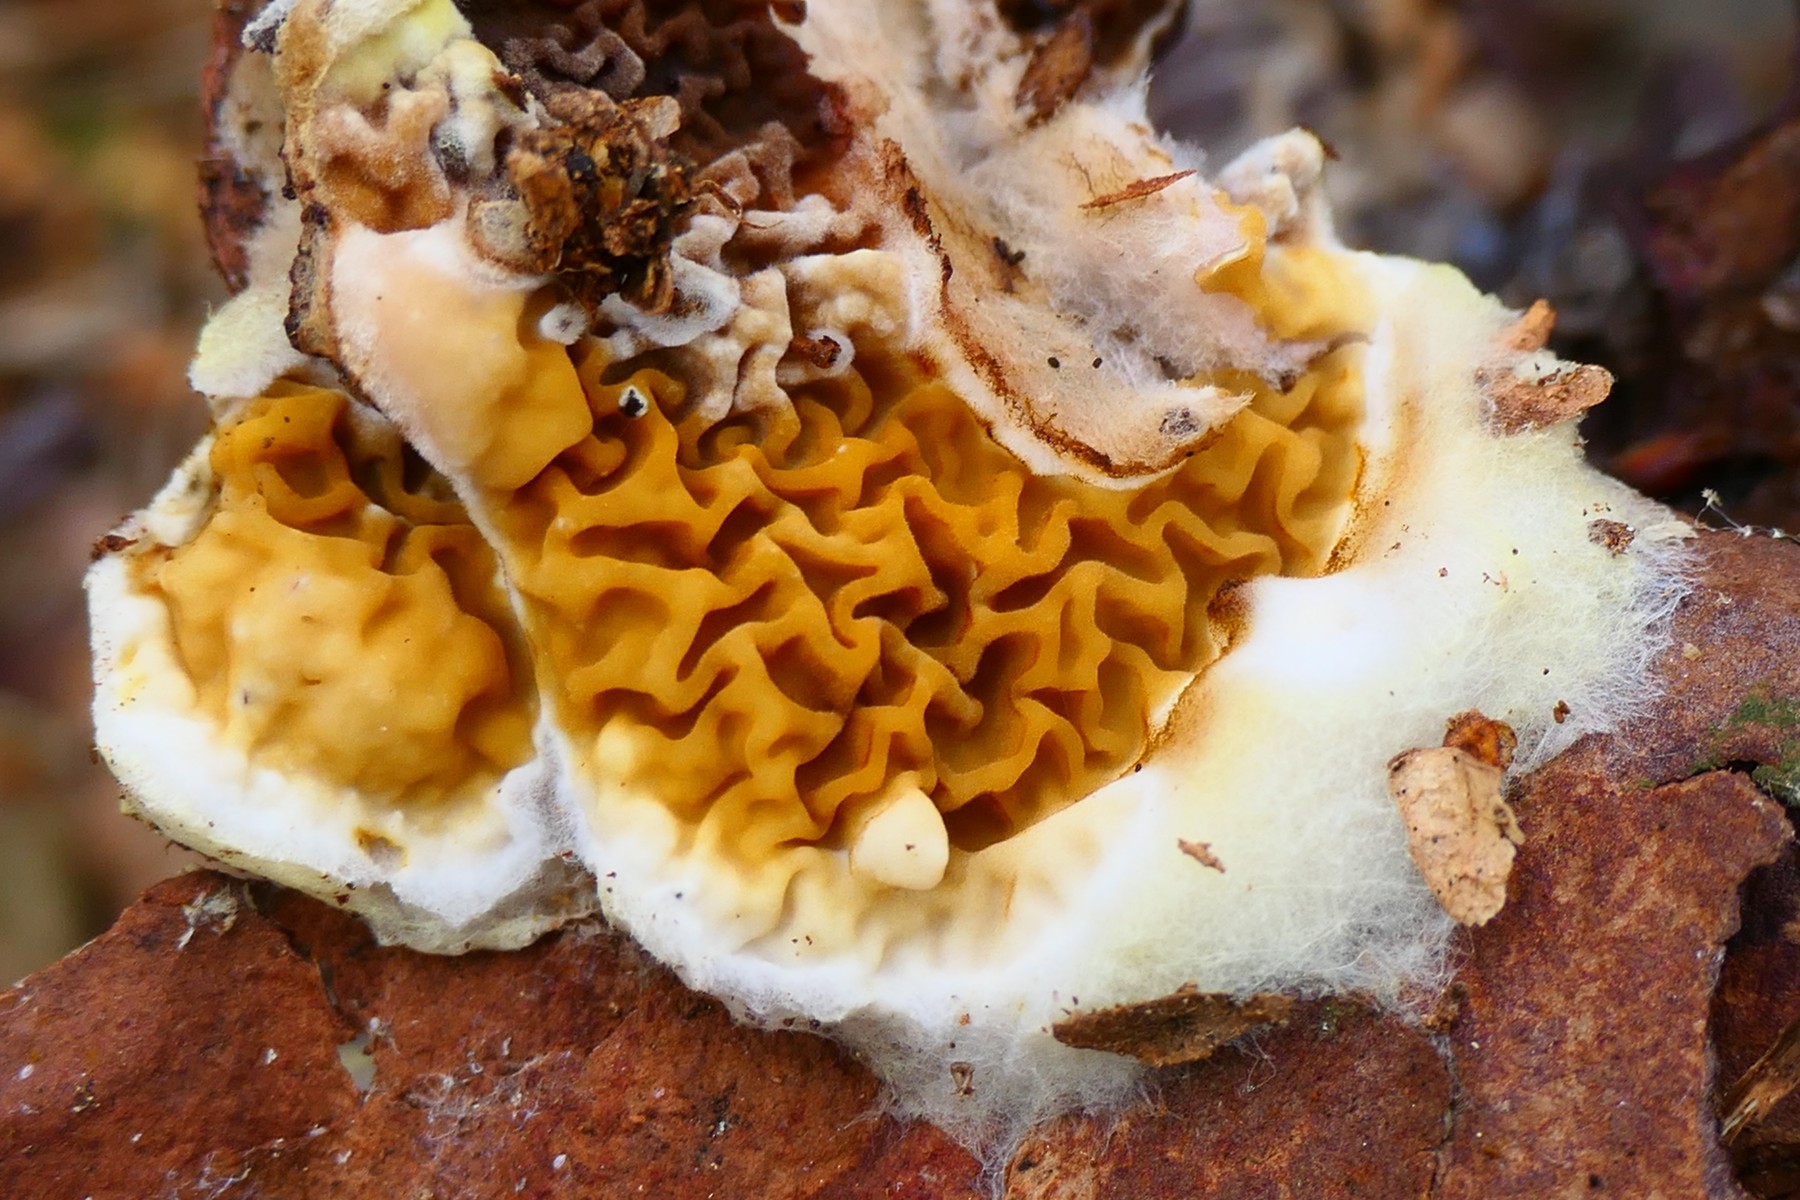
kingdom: Fungi
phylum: Basidiomycota
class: Agaricomycetes
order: Boletales
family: Serpulaceae
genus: Serpula
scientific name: Serpula himantioides
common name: tyndkødet hussvamp
